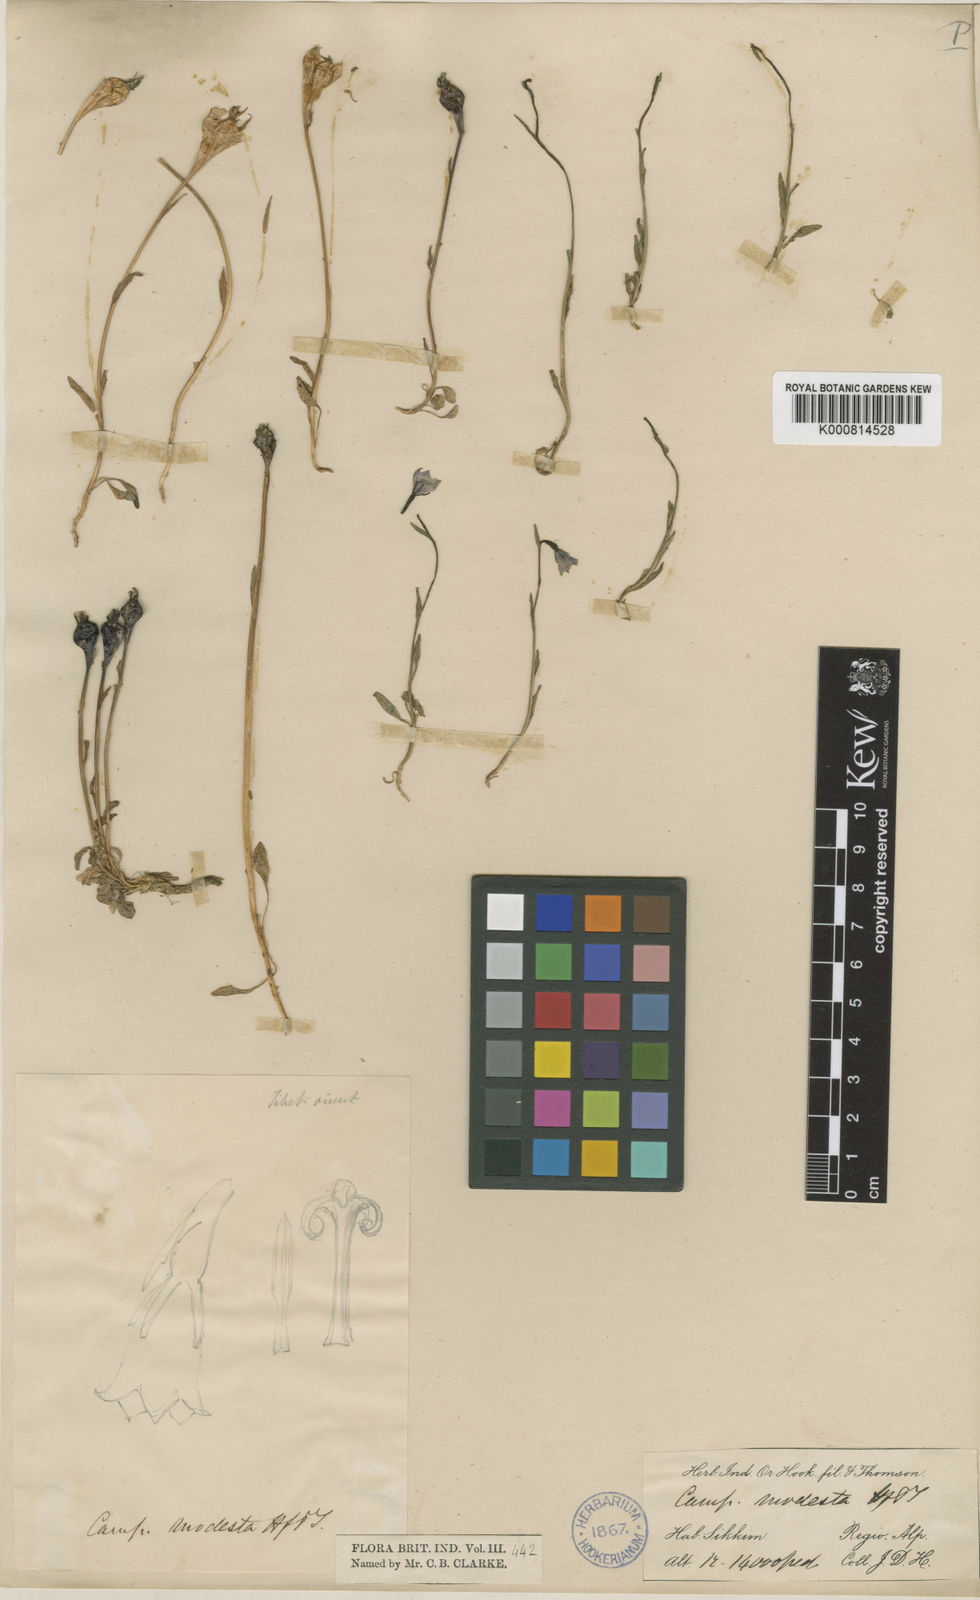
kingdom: Plantae
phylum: Tracheophyta
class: Magnoliopsida
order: Asterales
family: Campanulaceae
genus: Campanula
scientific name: Campanula immodesta
